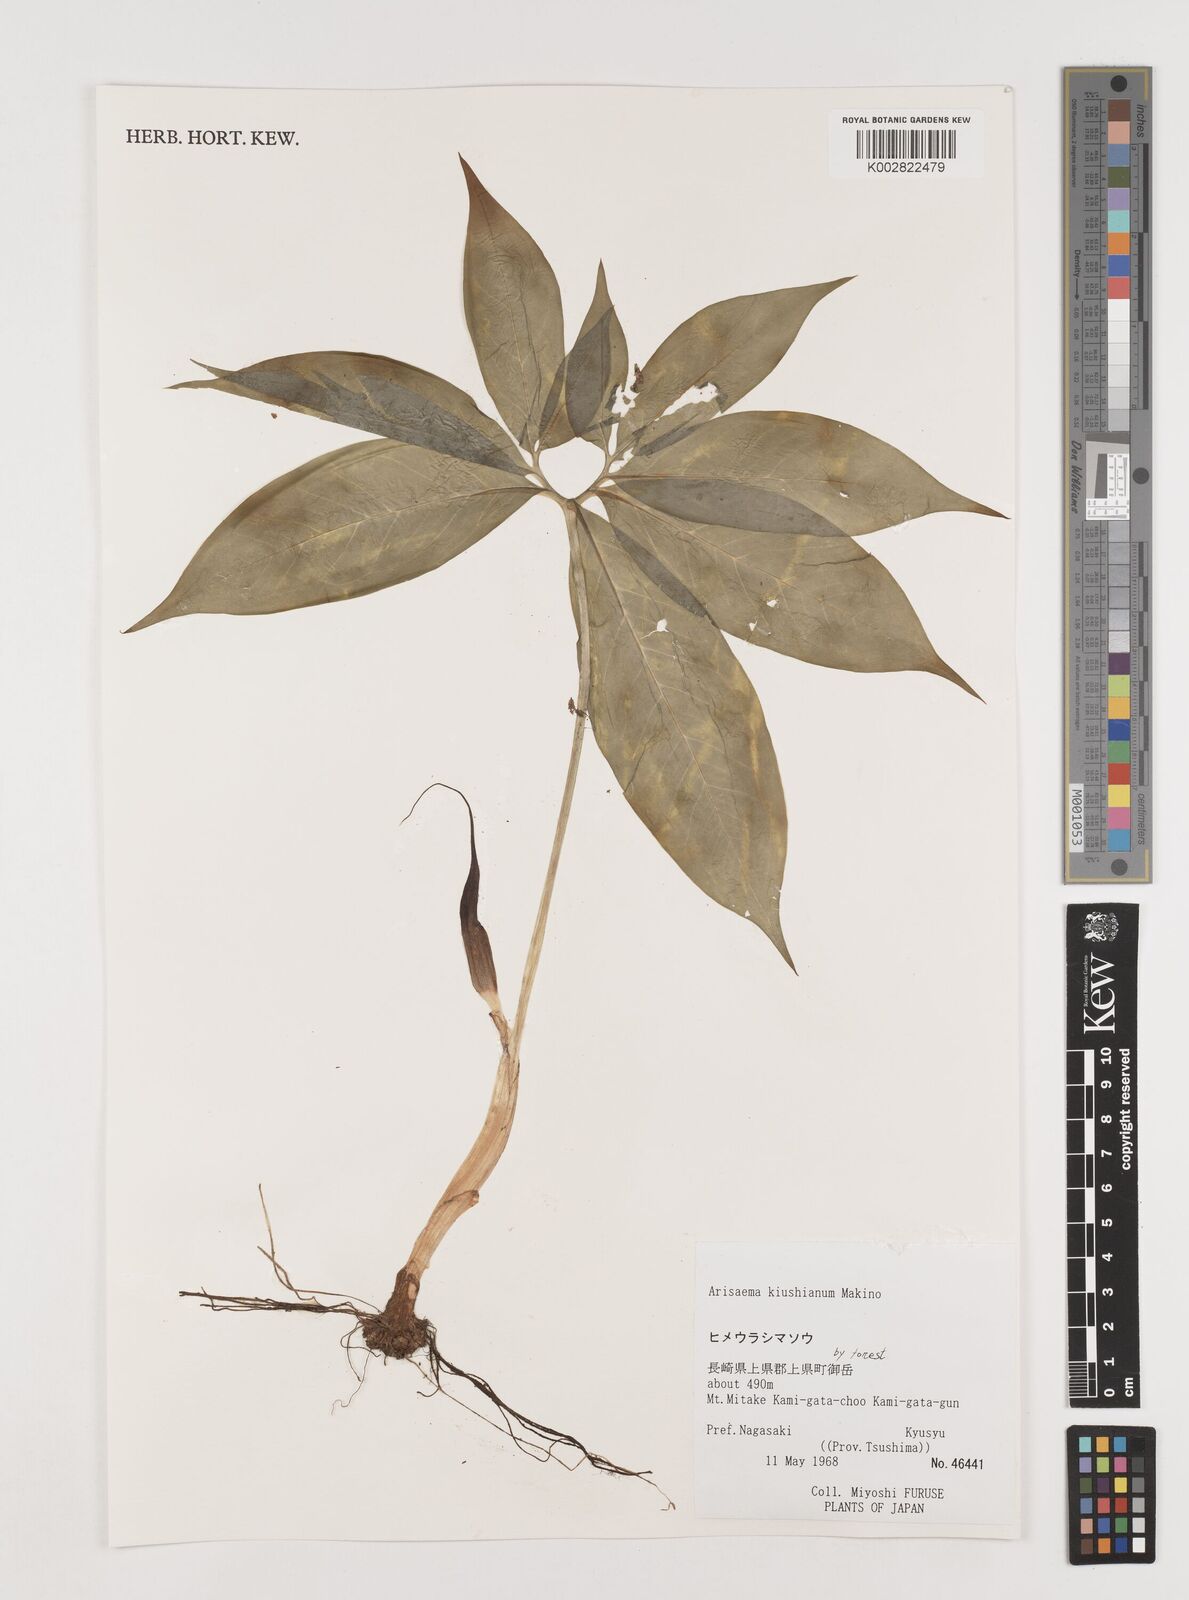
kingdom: Plantae
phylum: Tracheophyta
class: Liliopsida
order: Alismatales
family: Araceae
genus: Arisaema
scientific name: Arisaema kiushianum
